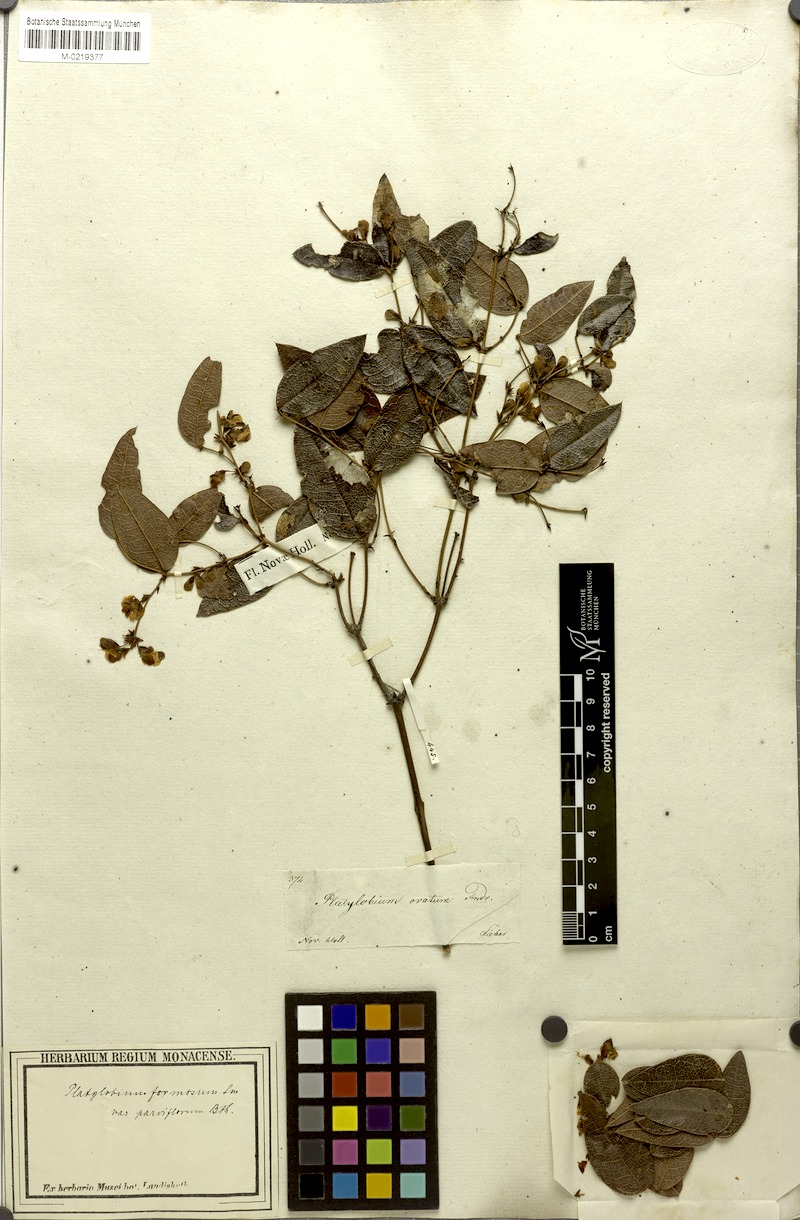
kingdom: Plantae
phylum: Tracheophyta
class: Magnoliopsida
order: Fabales
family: Fabaceae
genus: Platylobium
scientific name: Platylobium parviflorum
